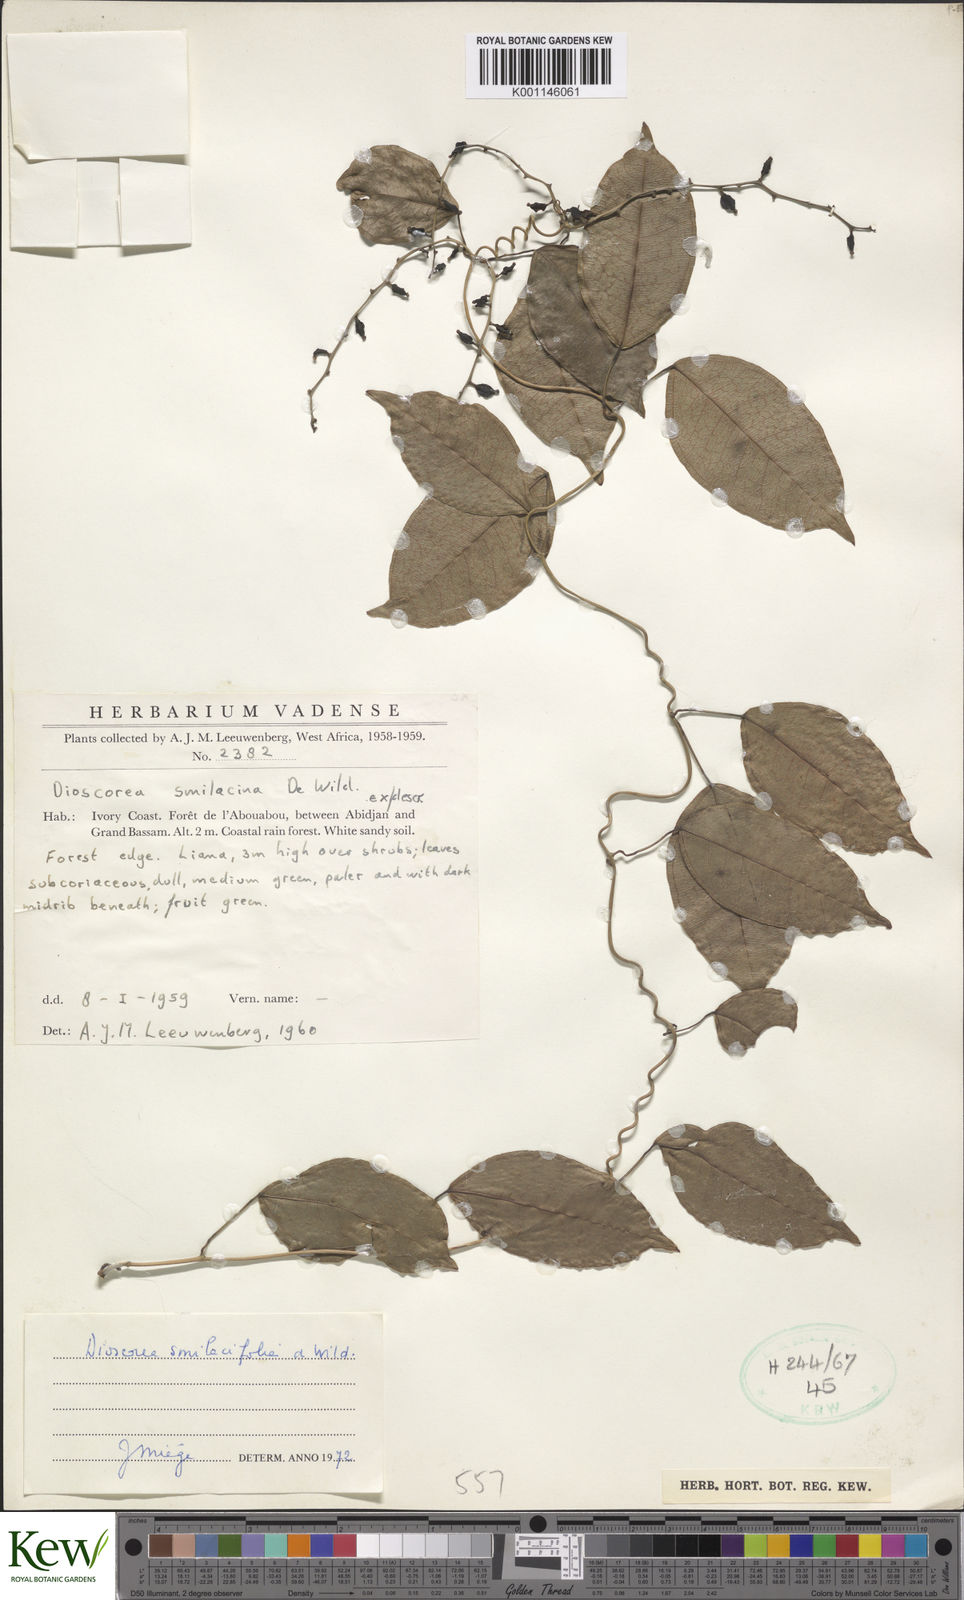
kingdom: Plantae
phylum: Tracheophyta
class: Liliopsida
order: Dioscoreales
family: Dioscoreaceae
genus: Dioscorea
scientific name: Dioscorea smilacifolia
